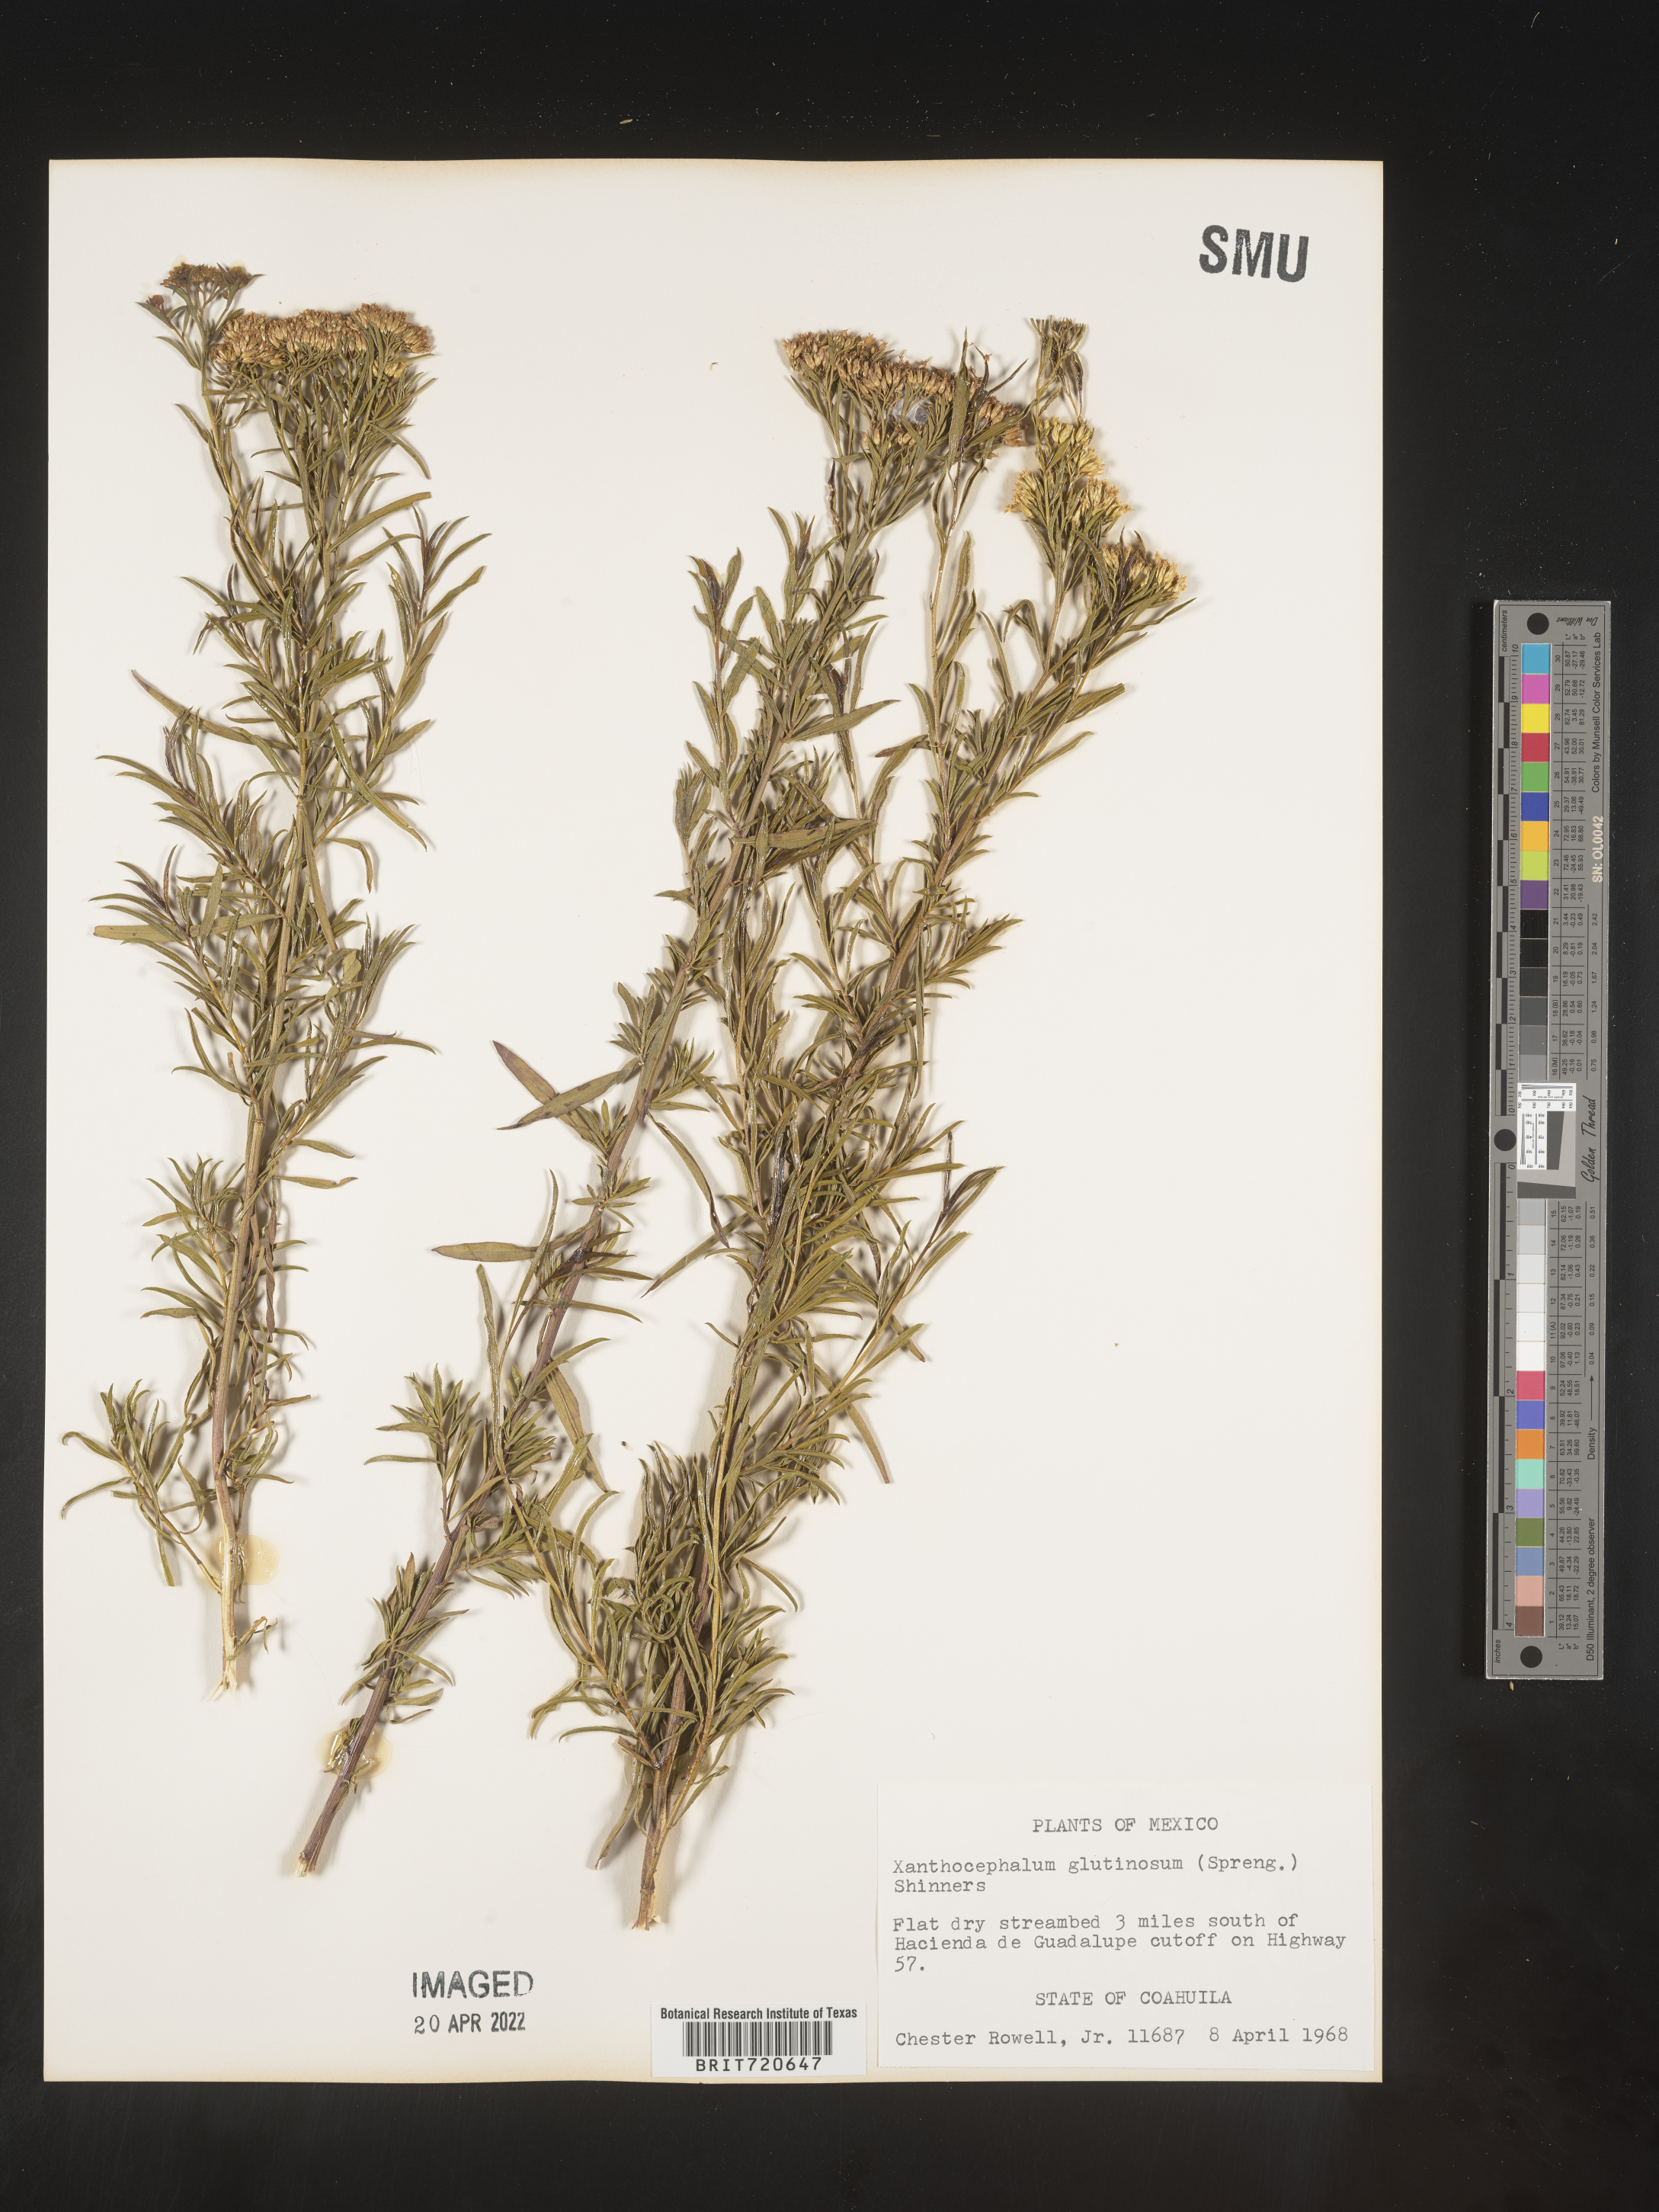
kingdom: Plantae
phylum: Tracheophyta
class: Magnoliopsida
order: Asterales
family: Asteraceae
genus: Gymnosperma
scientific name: Gymnosperma glutinosum
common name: Gumhead
